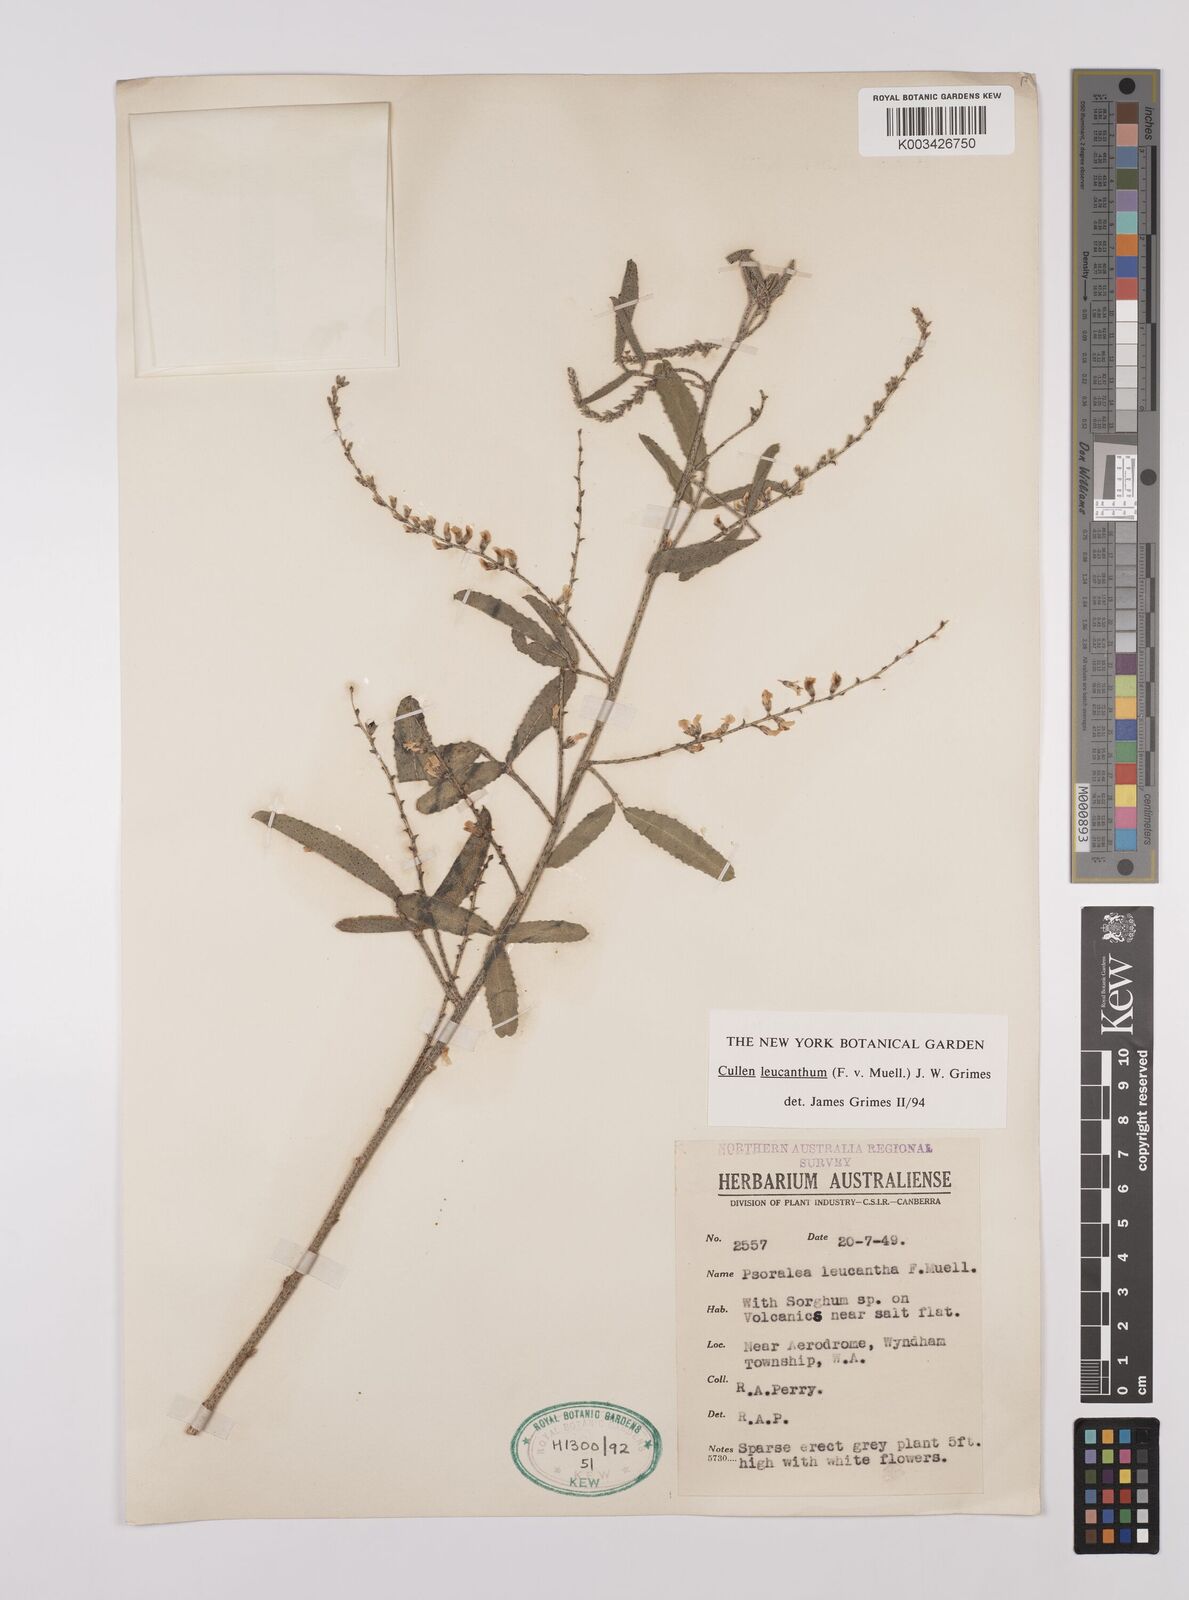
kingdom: Plantae
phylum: Tracheophyta
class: Magnoliopsida
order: Fabales
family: Fabaceae
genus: Cullen
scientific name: Cullen leucanthum
